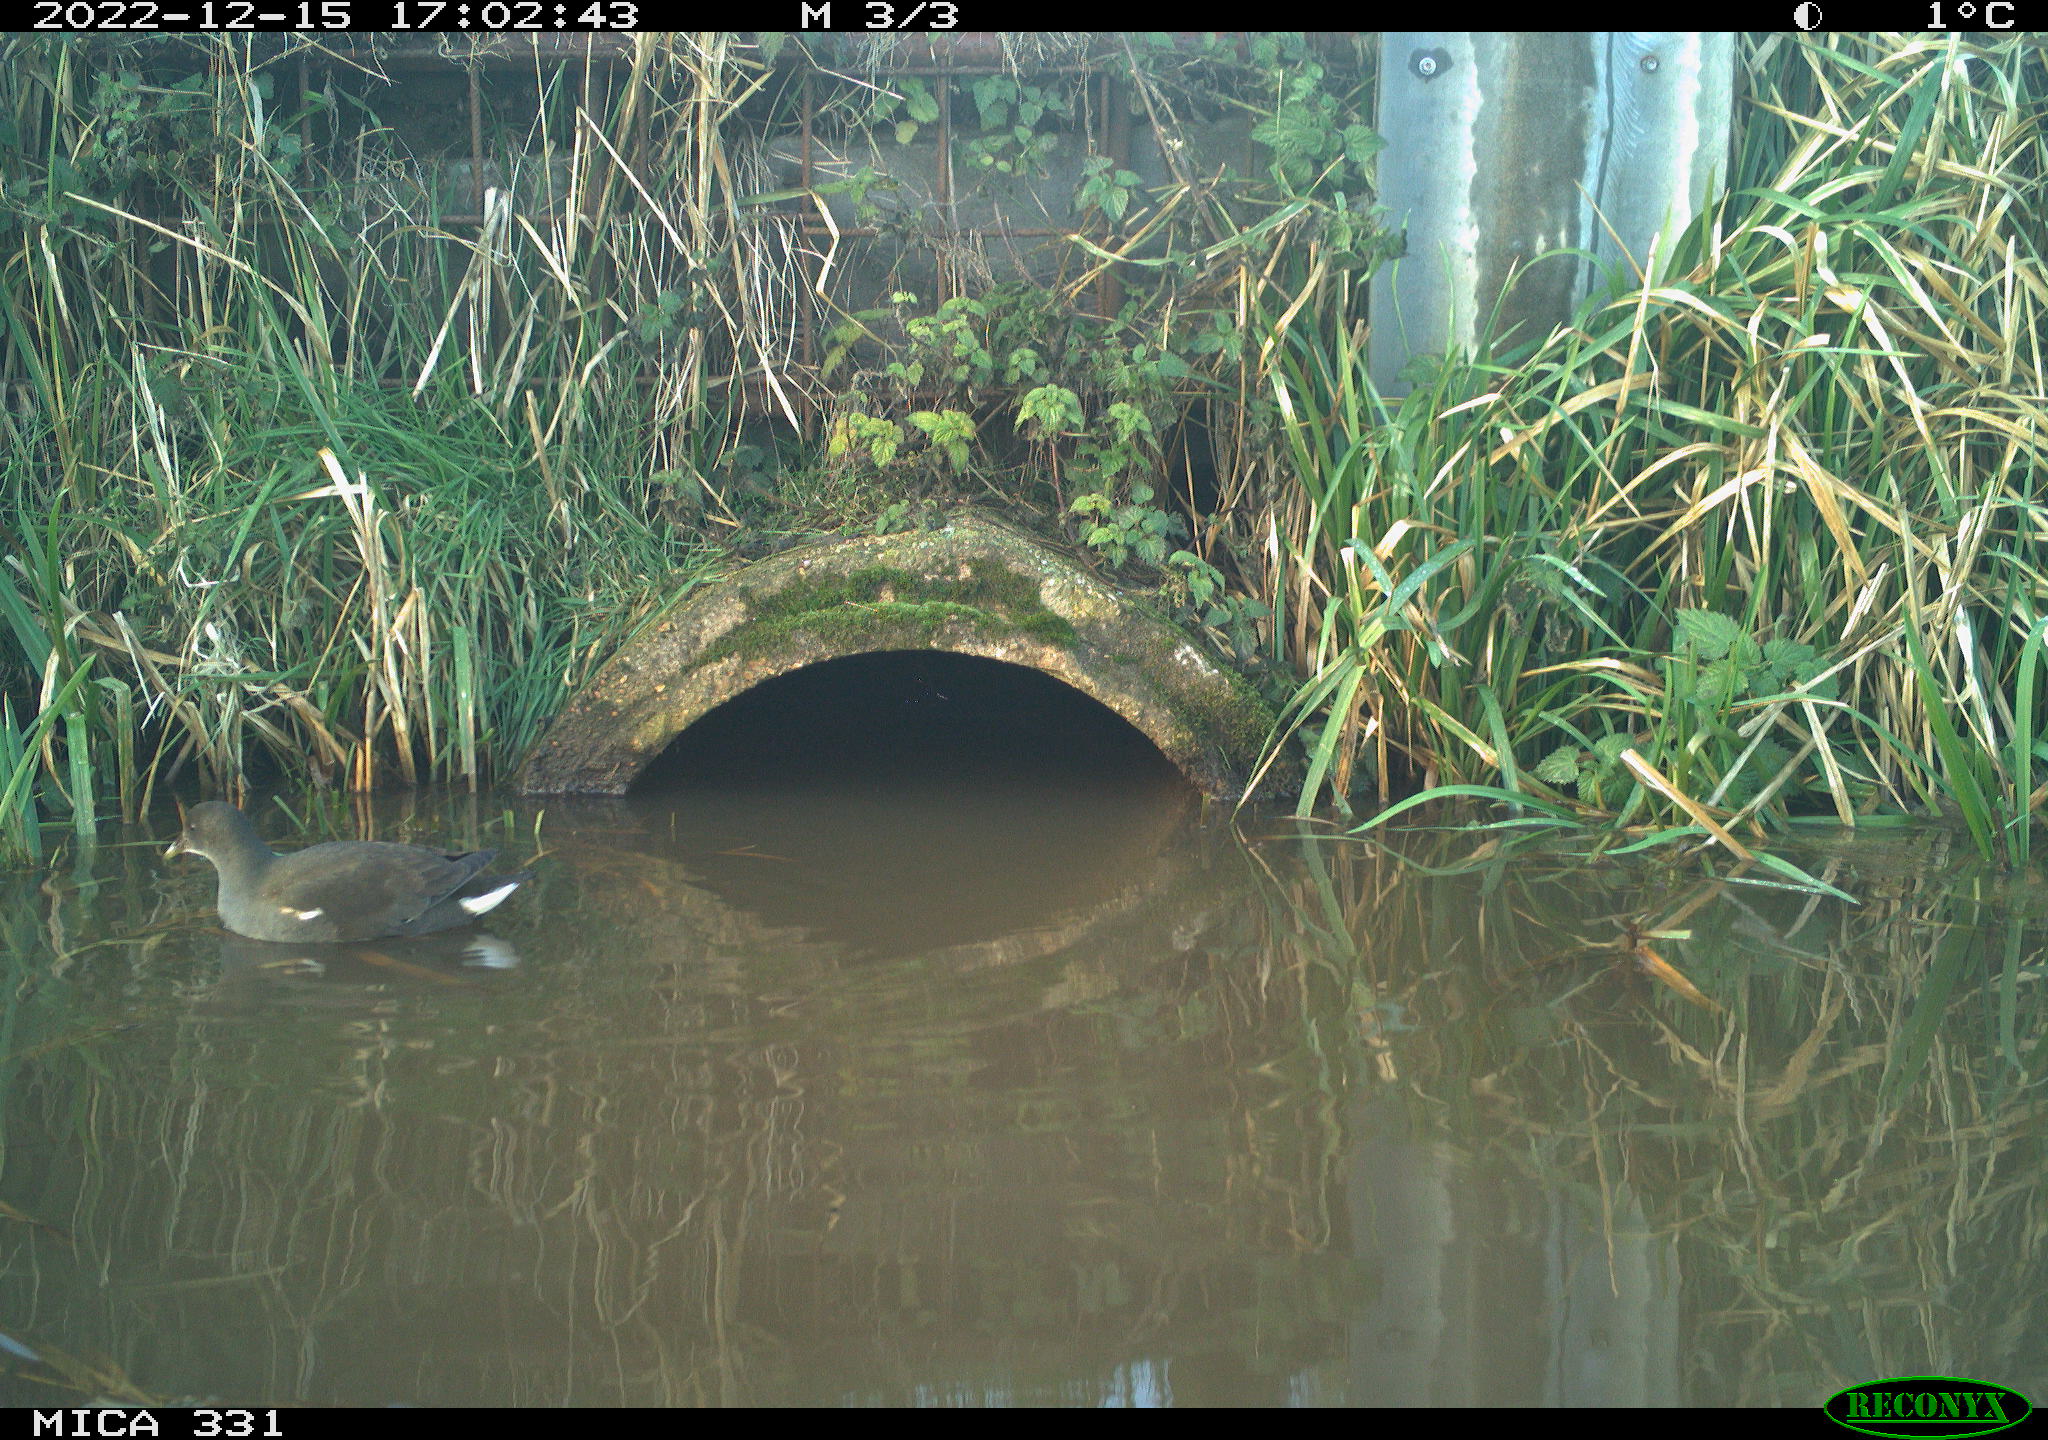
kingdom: Animalia
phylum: Chordata
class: Aves
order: Gruiformes
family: Rallidae
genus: Gallinula
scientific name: Gallinula chloropus
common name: Common moorhen
